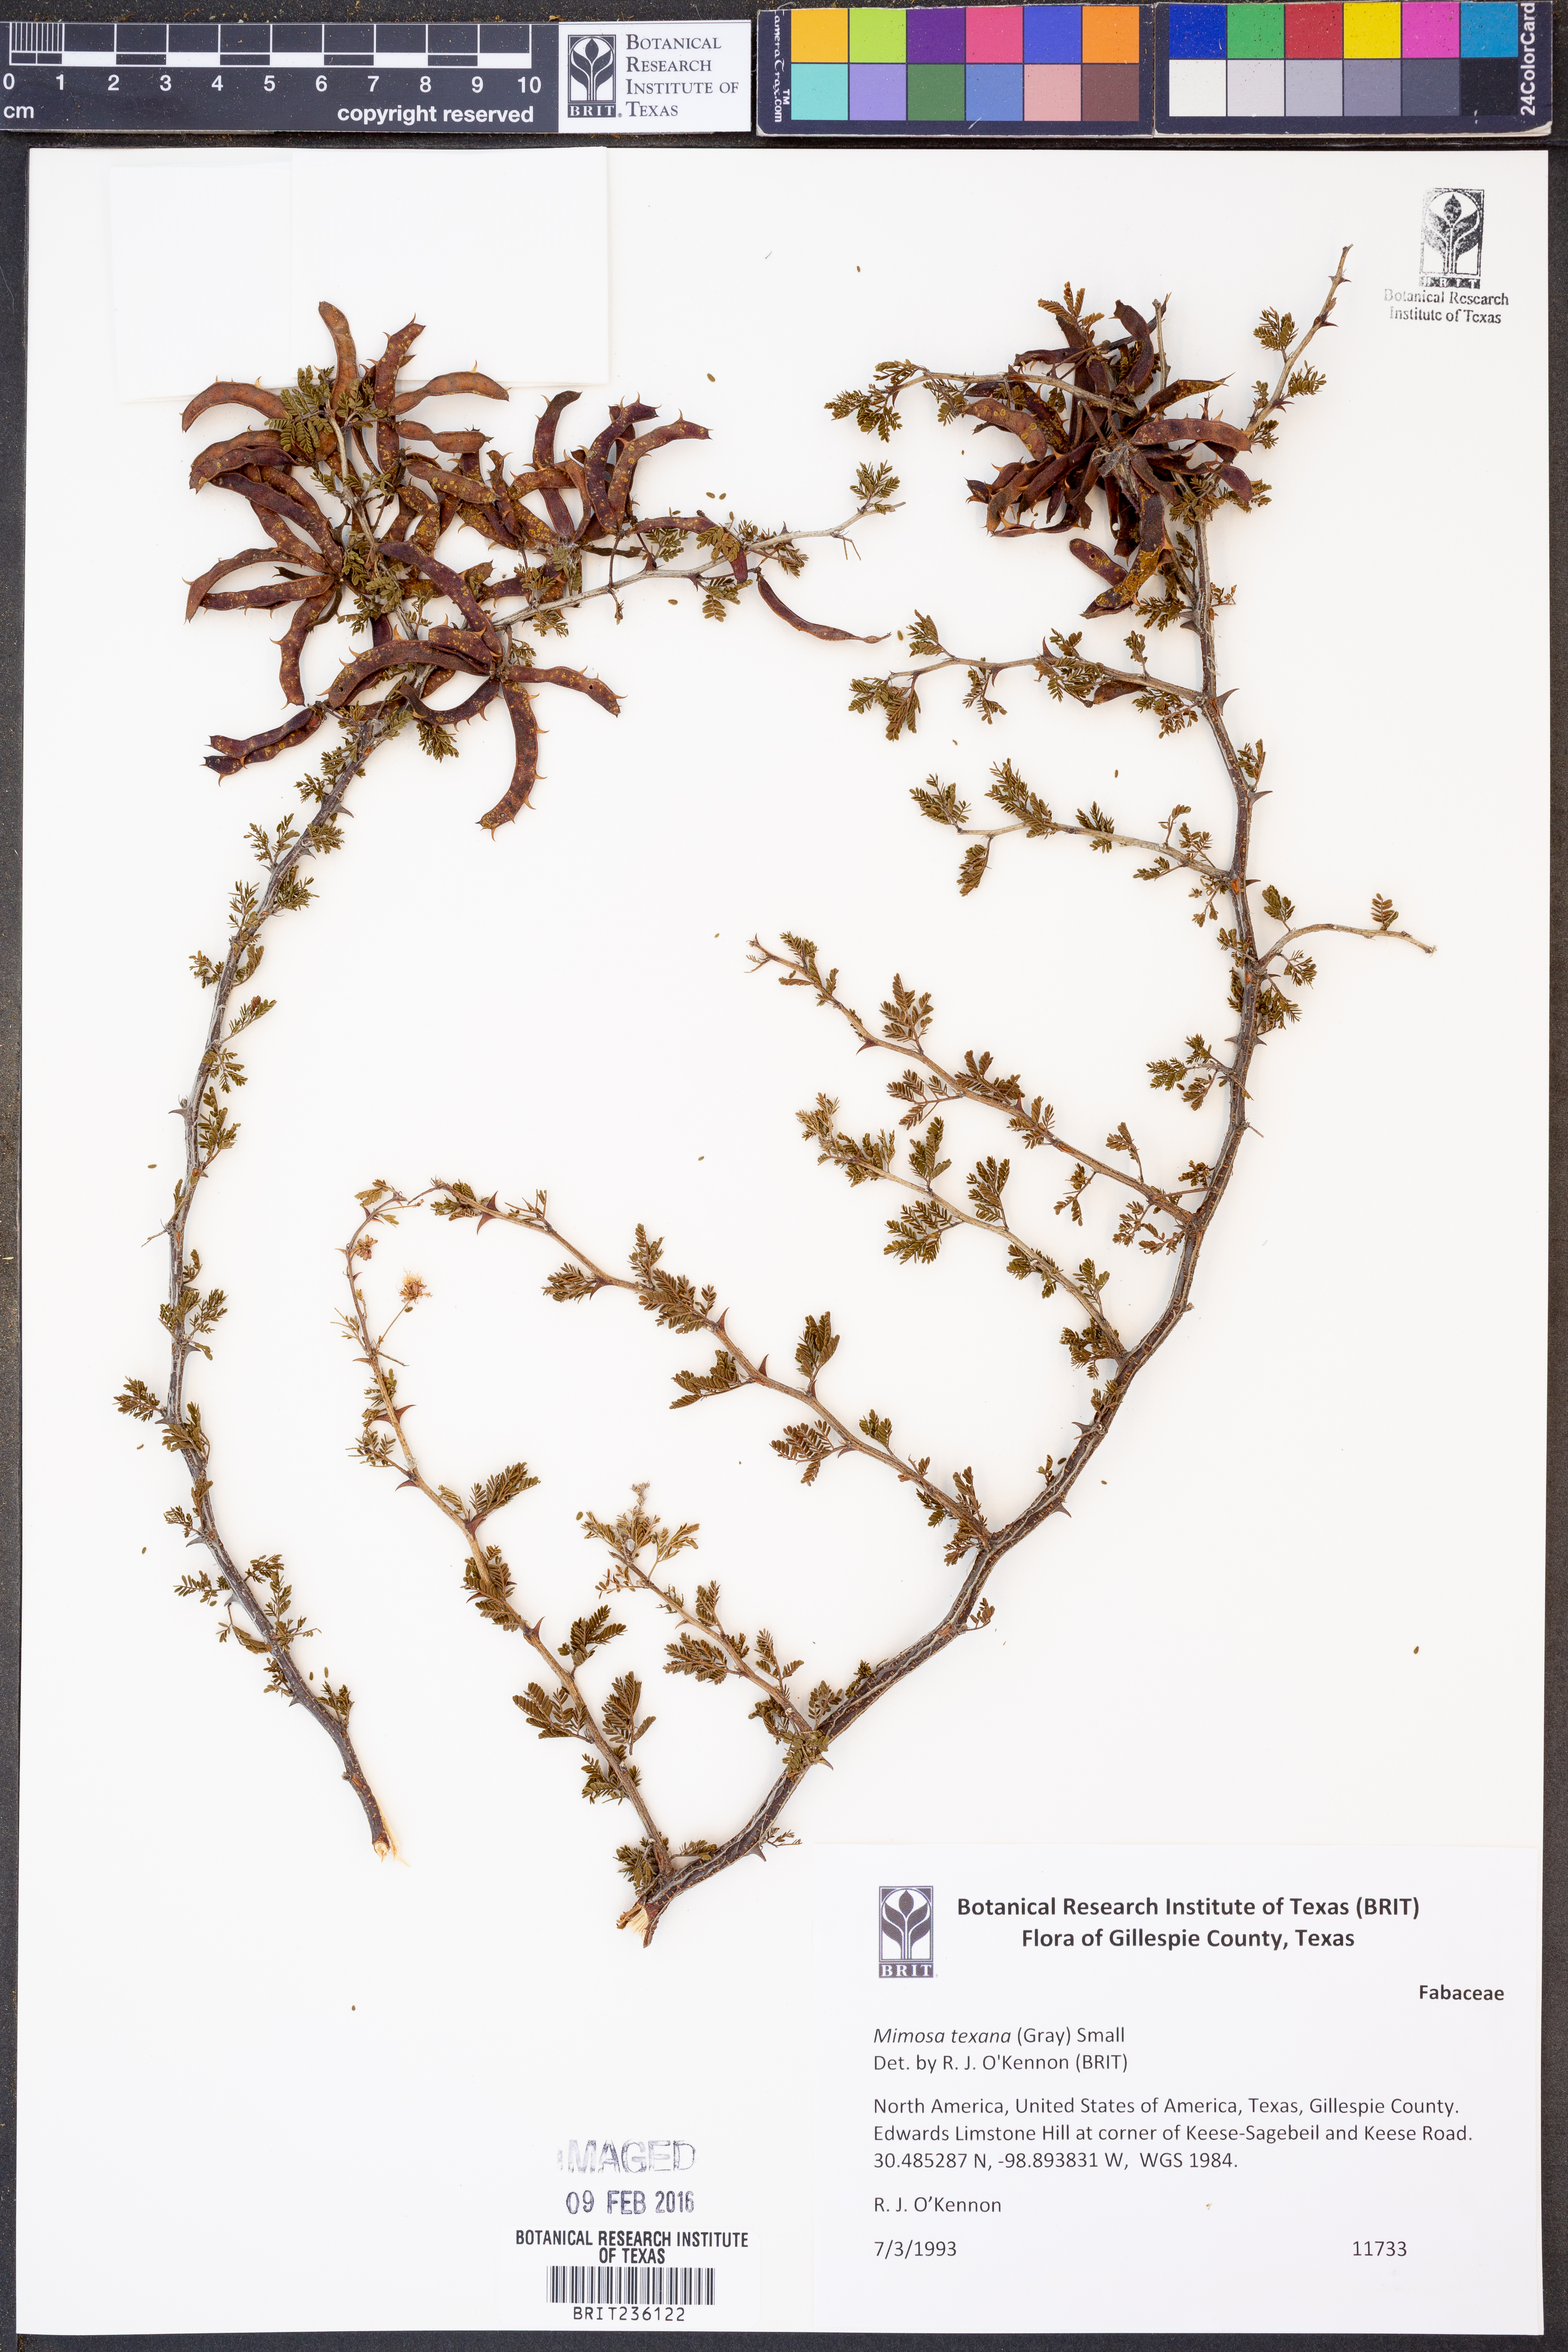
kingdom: Plantae
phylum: Tracheophyta
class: Magnoliopsida
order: Fabales
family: Fabaceae
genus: Mimosa
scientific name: Mimosa texana
